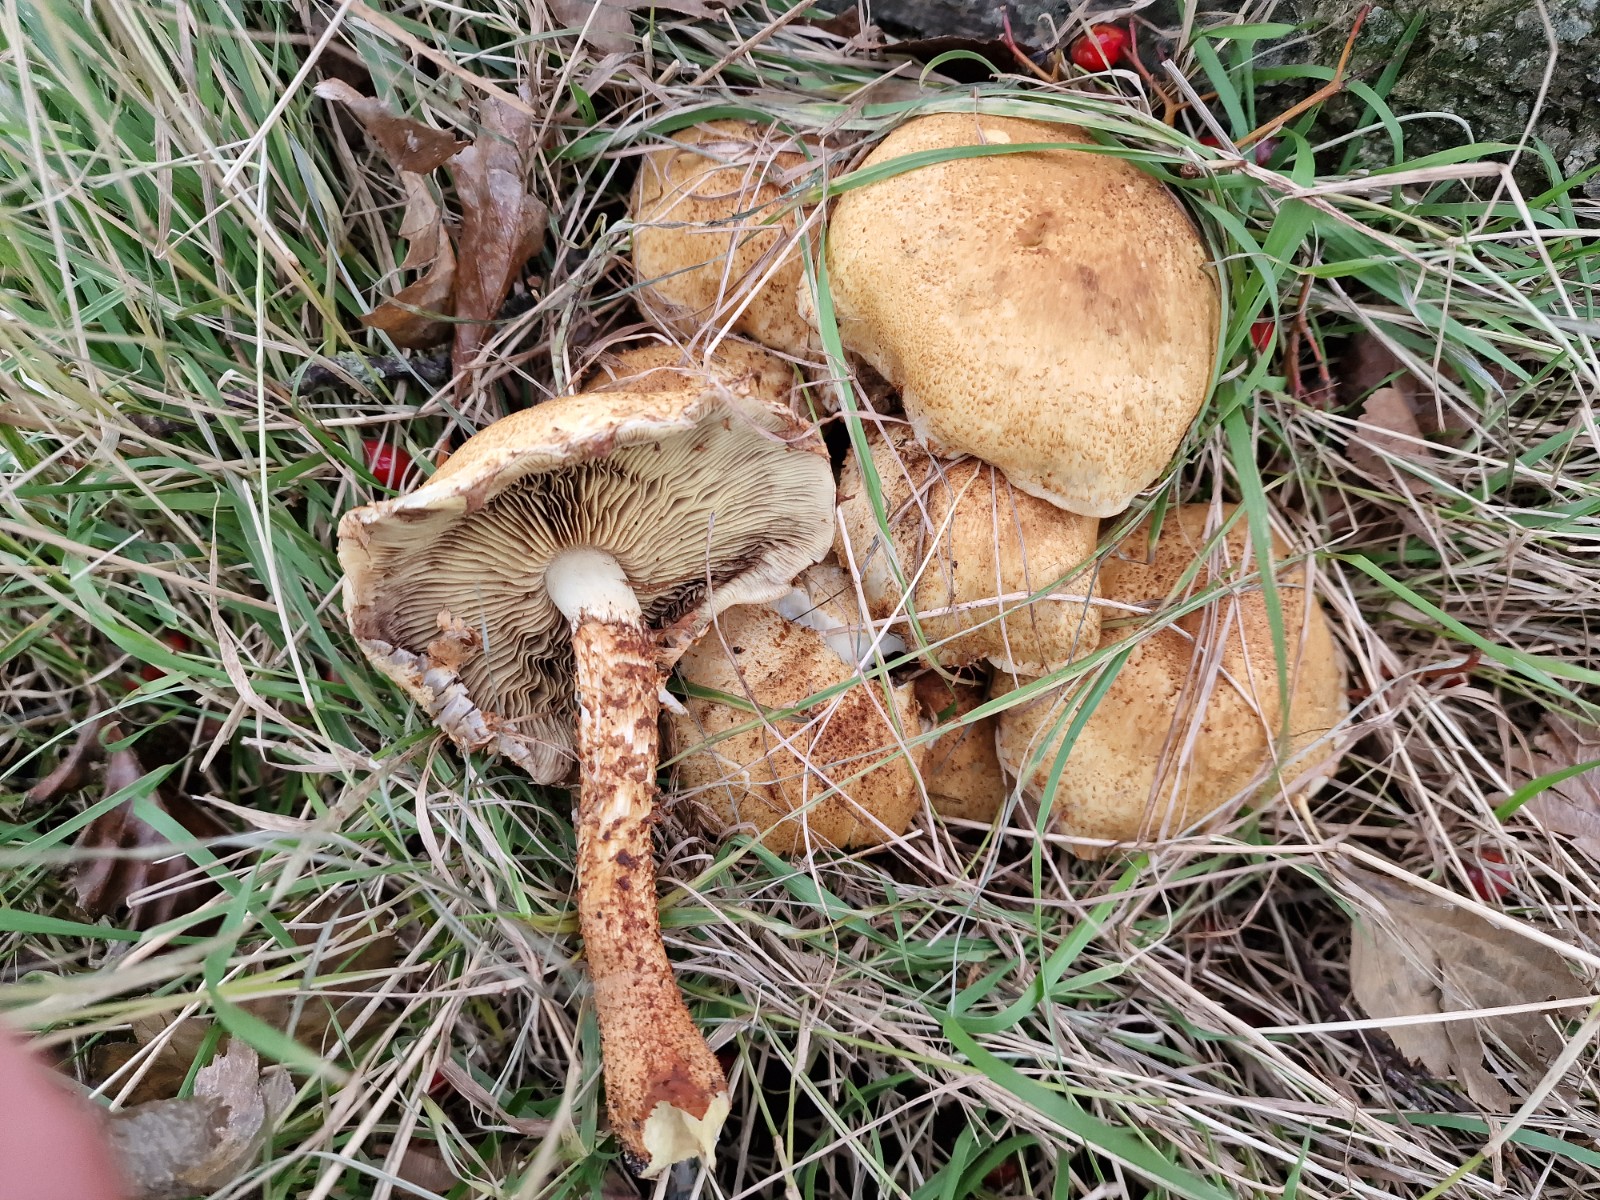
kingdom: Fungi
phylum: Basidiomycota
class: Agaricomycetes
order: Agaricales
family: Strophariaceae
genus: Pholiota
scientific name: Pholiota squarrosa
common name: krumskællet skælhat
